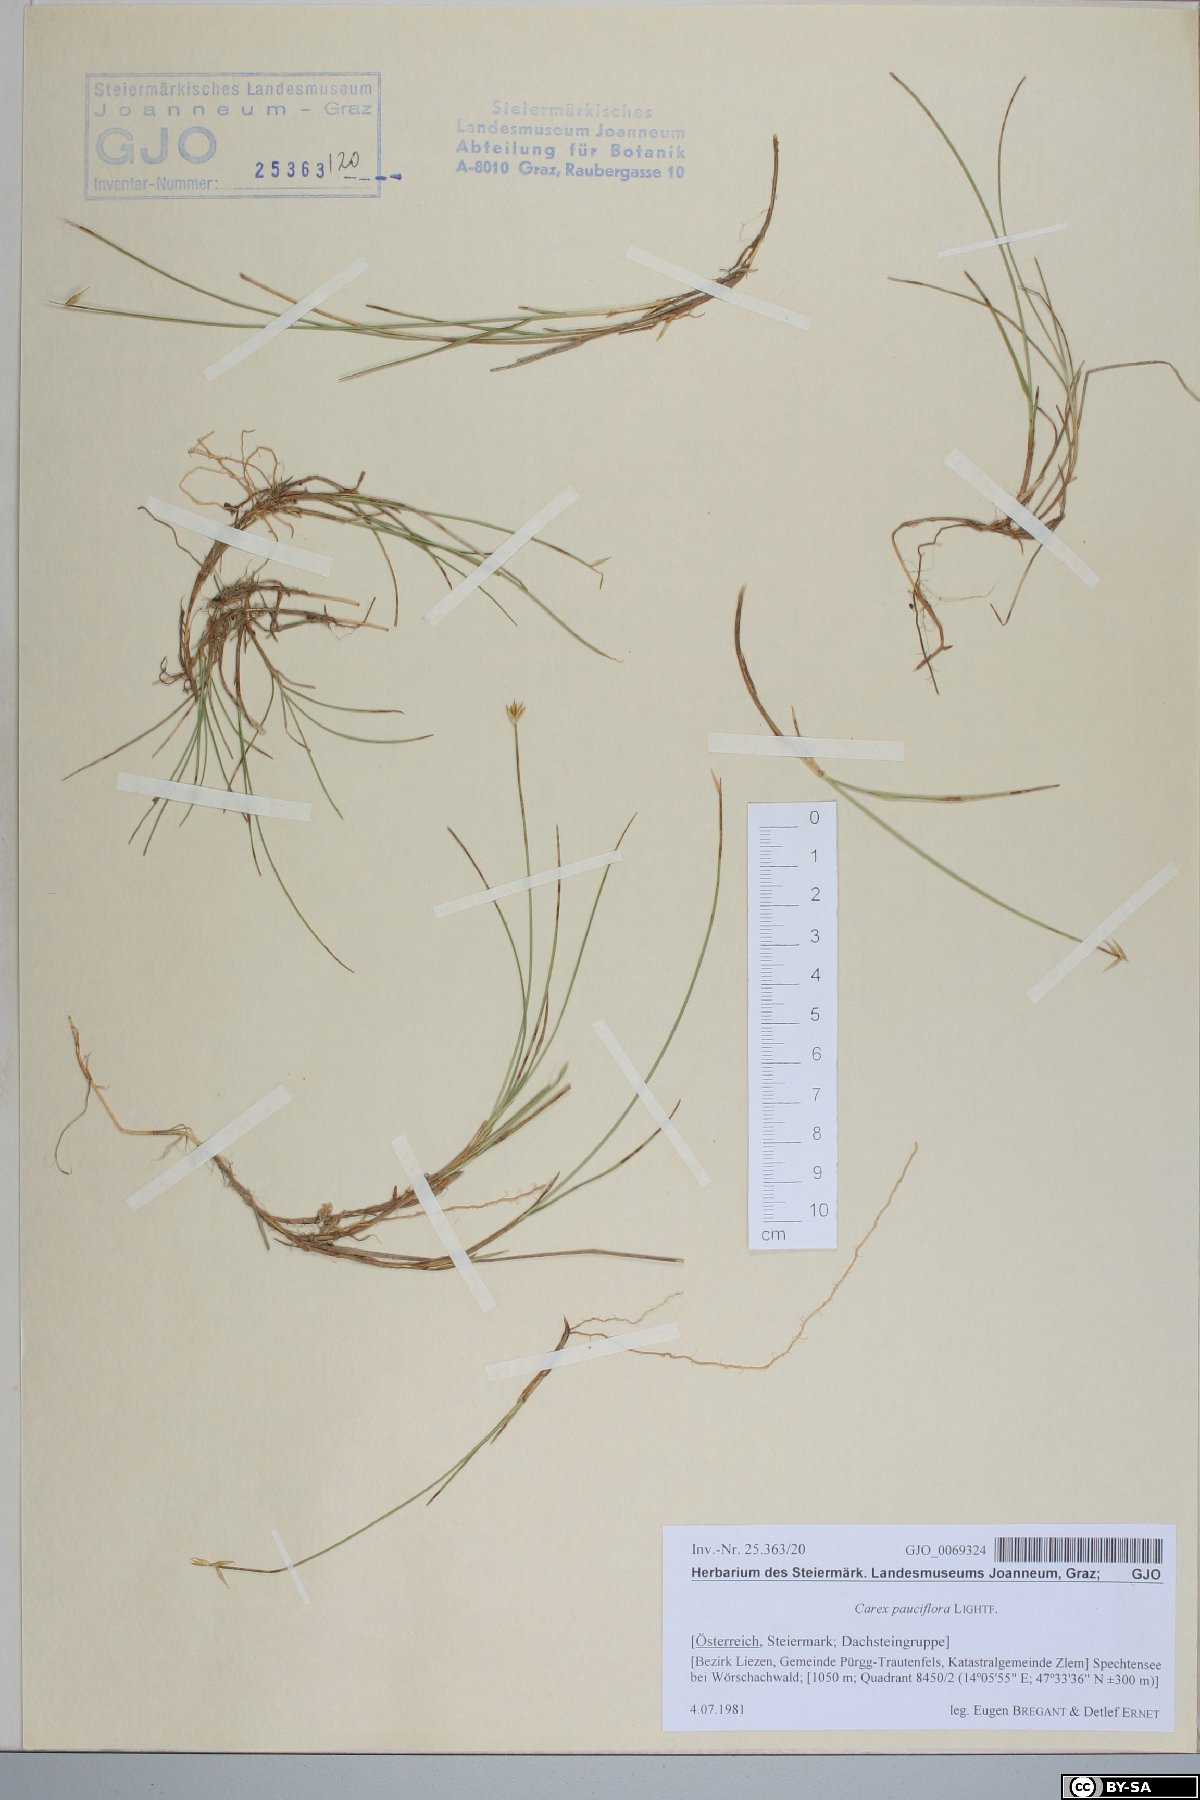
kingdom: Plantae
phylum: Tracheophyta
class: Liliopsida
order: Poales
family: Cyperaceae
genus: Carex
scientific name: Carex pauciflora
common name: Few-flowered sedge
